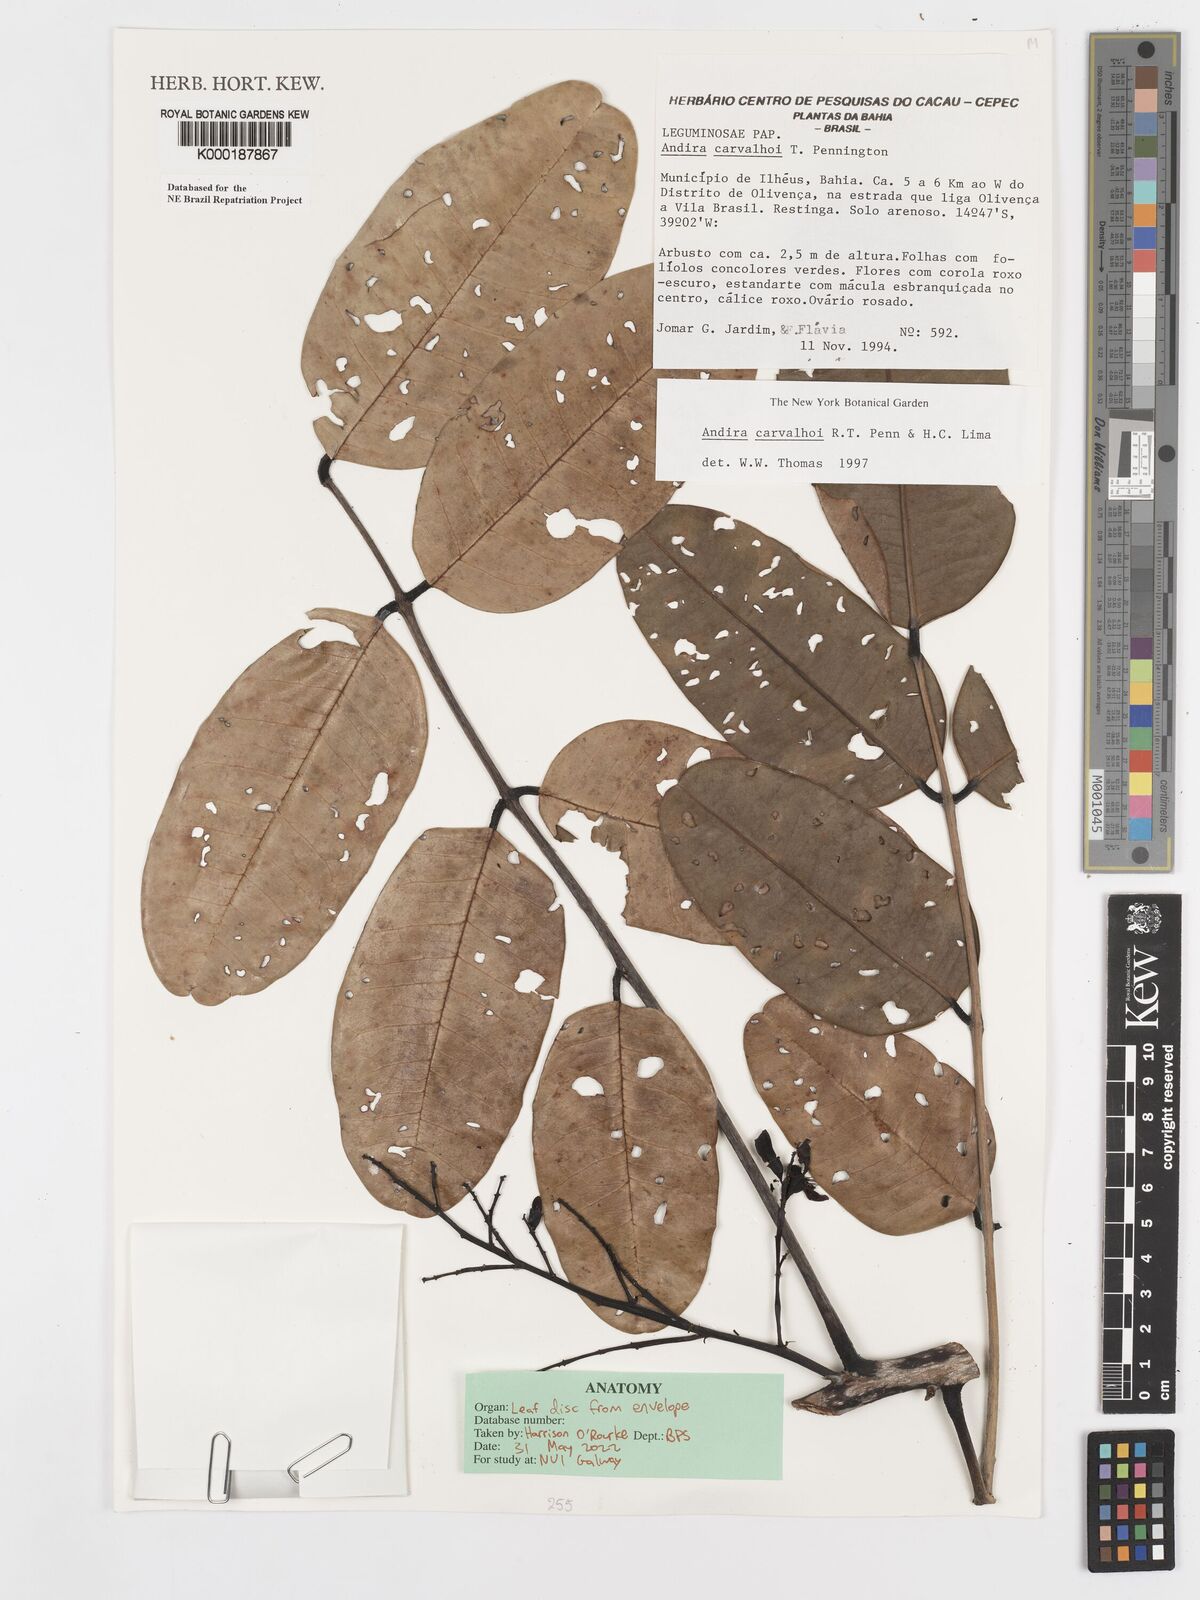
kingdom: Plantae
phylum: Tracheophyta
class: Magnoliopsida
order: Fabales
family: Fabaceae
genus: Andira
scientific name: Andira carvalhoi
